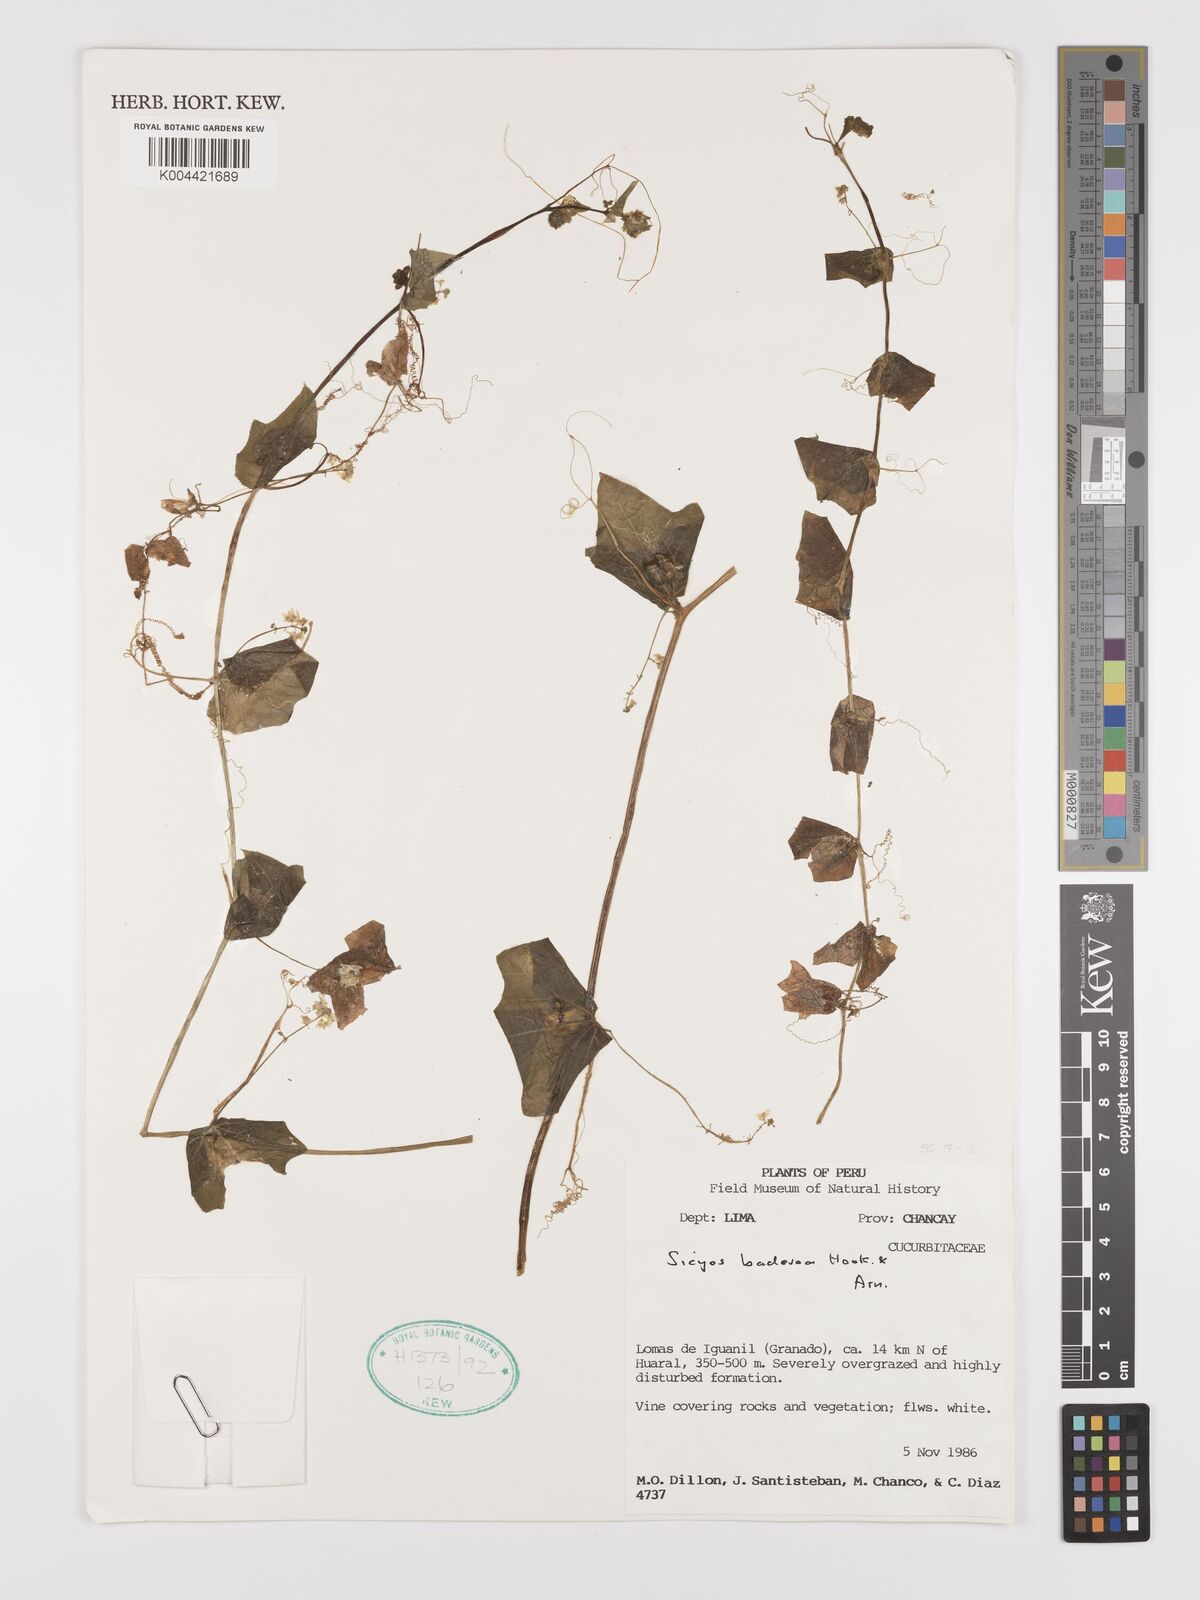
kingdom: Plantae
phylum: Tracheophyta
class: Magnoliopsida
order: Cucurbitales
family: Cucurbitaceae
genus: Sicyos
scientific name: Sicyos baderoa
